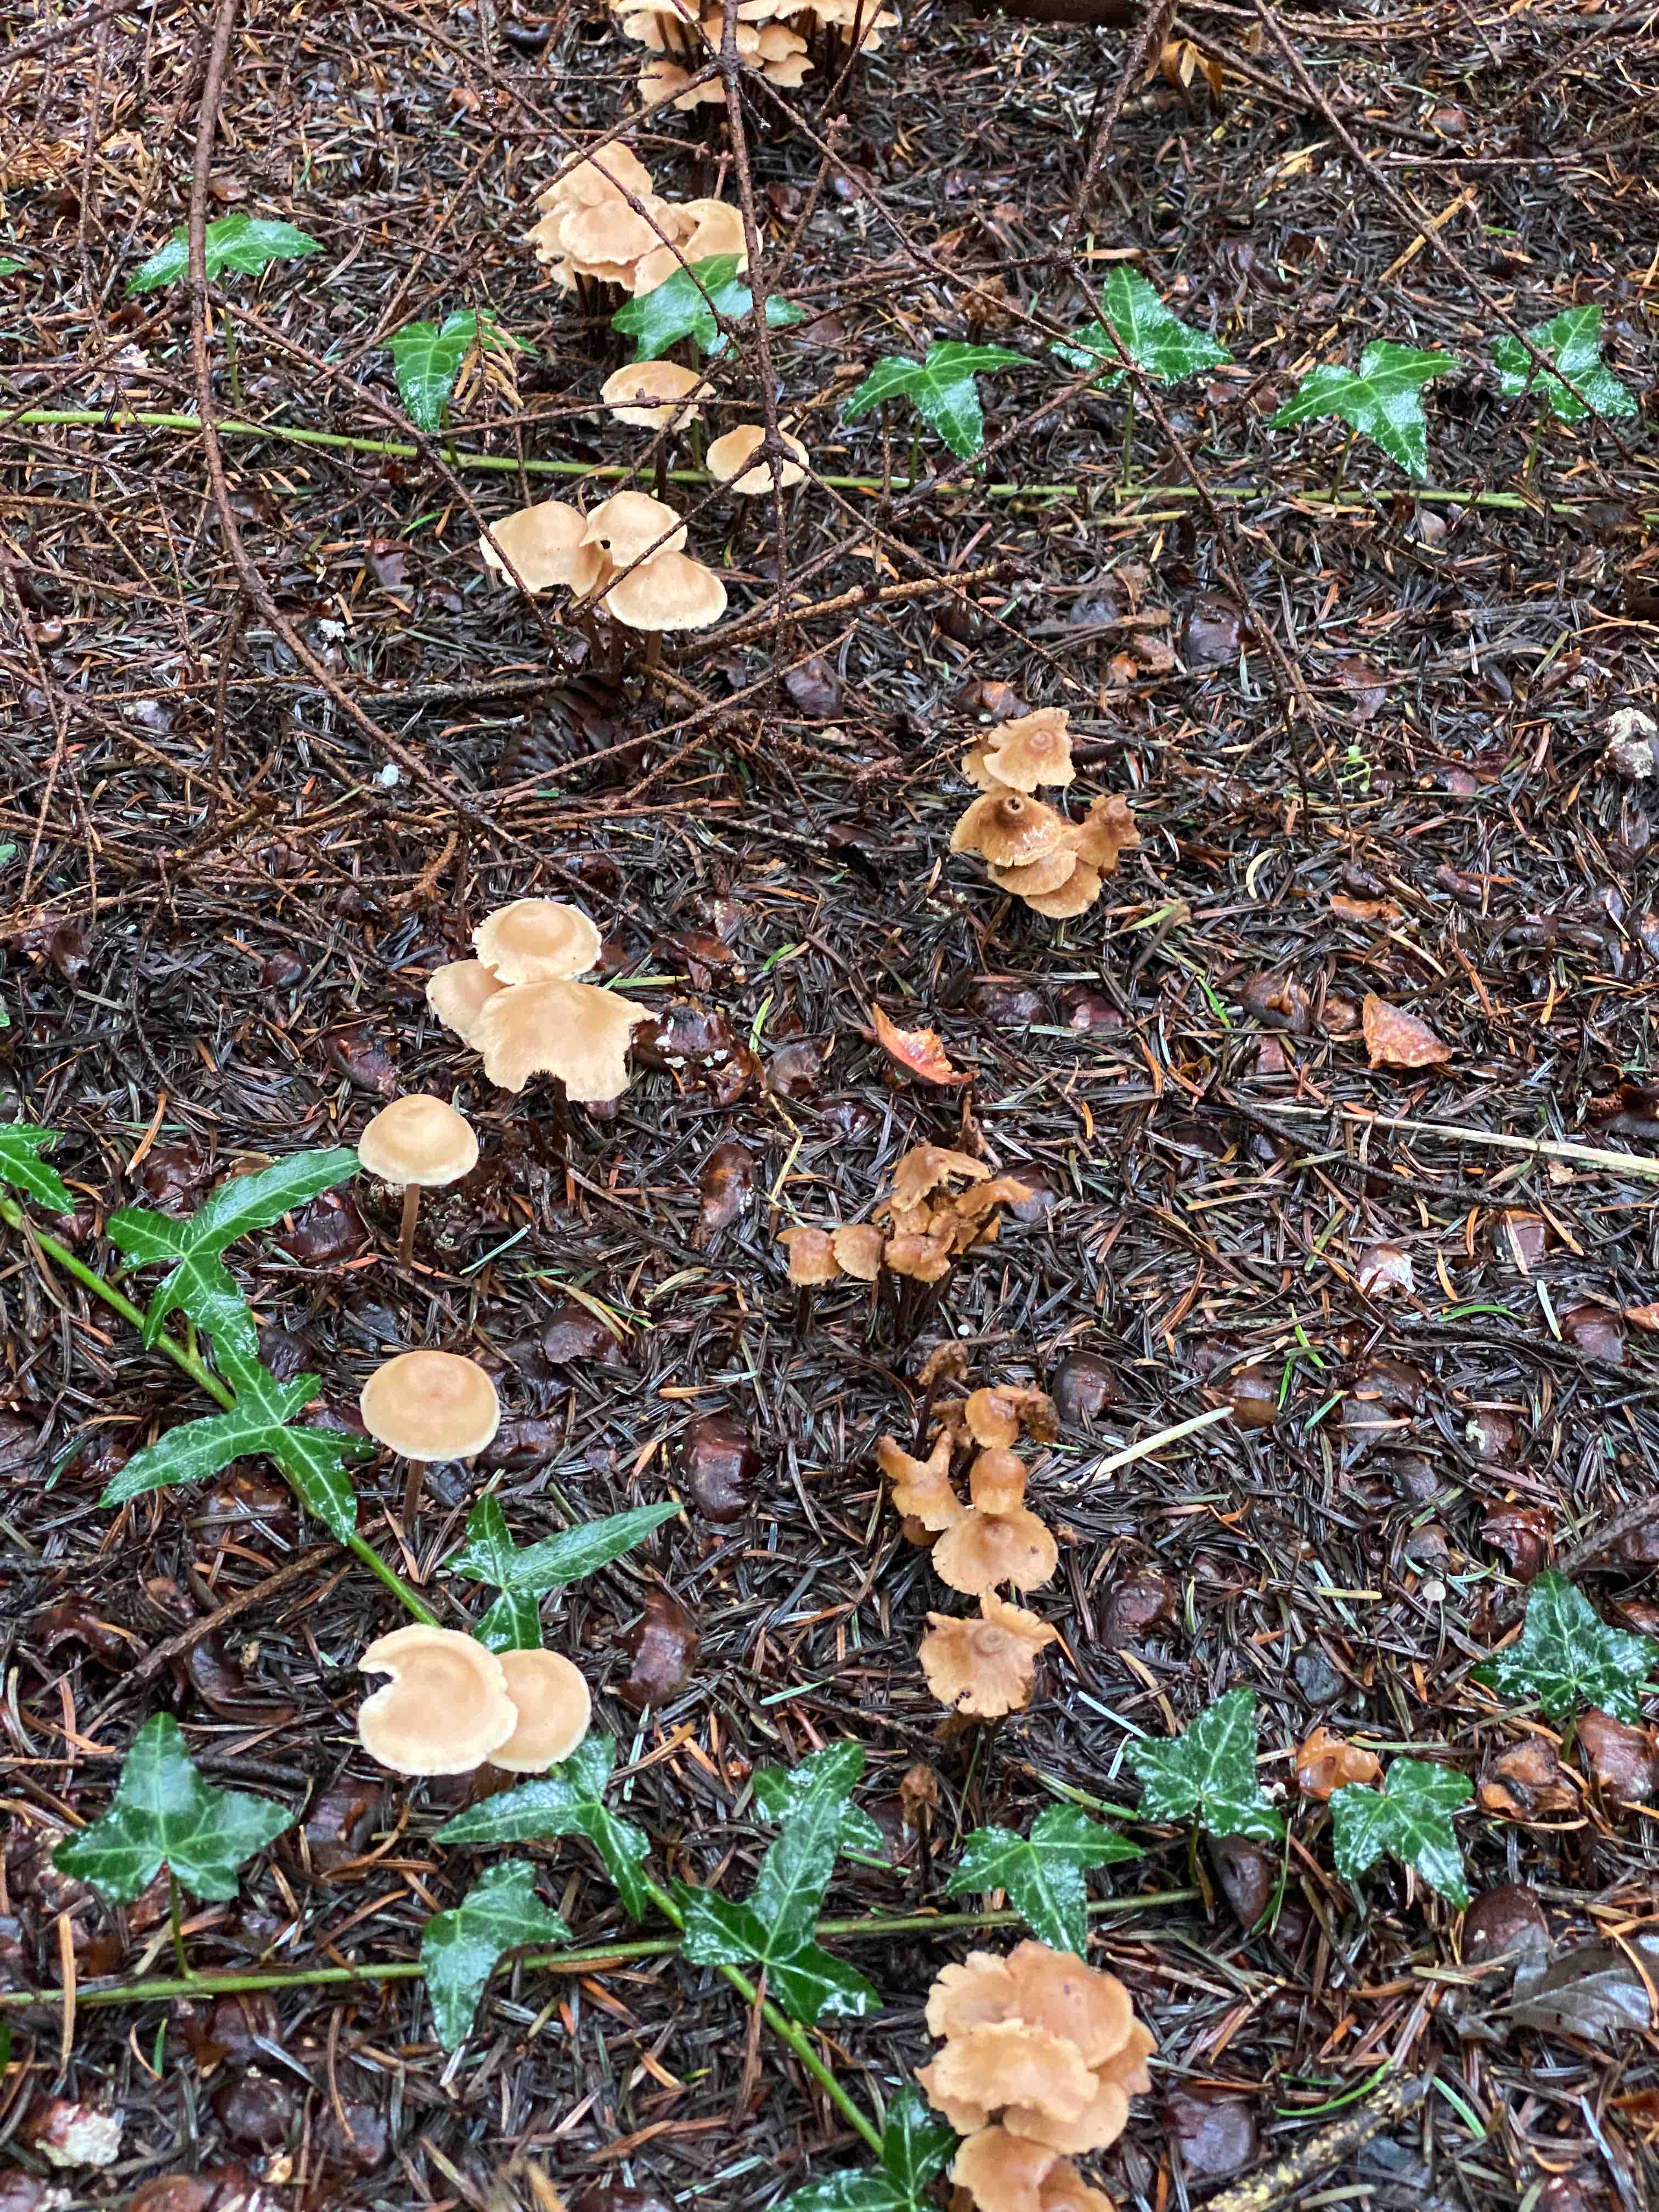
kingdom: Fungi
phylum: Basidiomycota
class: Agaricomycetes
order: Agaricales
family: Omphalotaceae
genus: Collybiopsis
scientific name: Collybiopsis confluens
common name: knippe-fladhat
